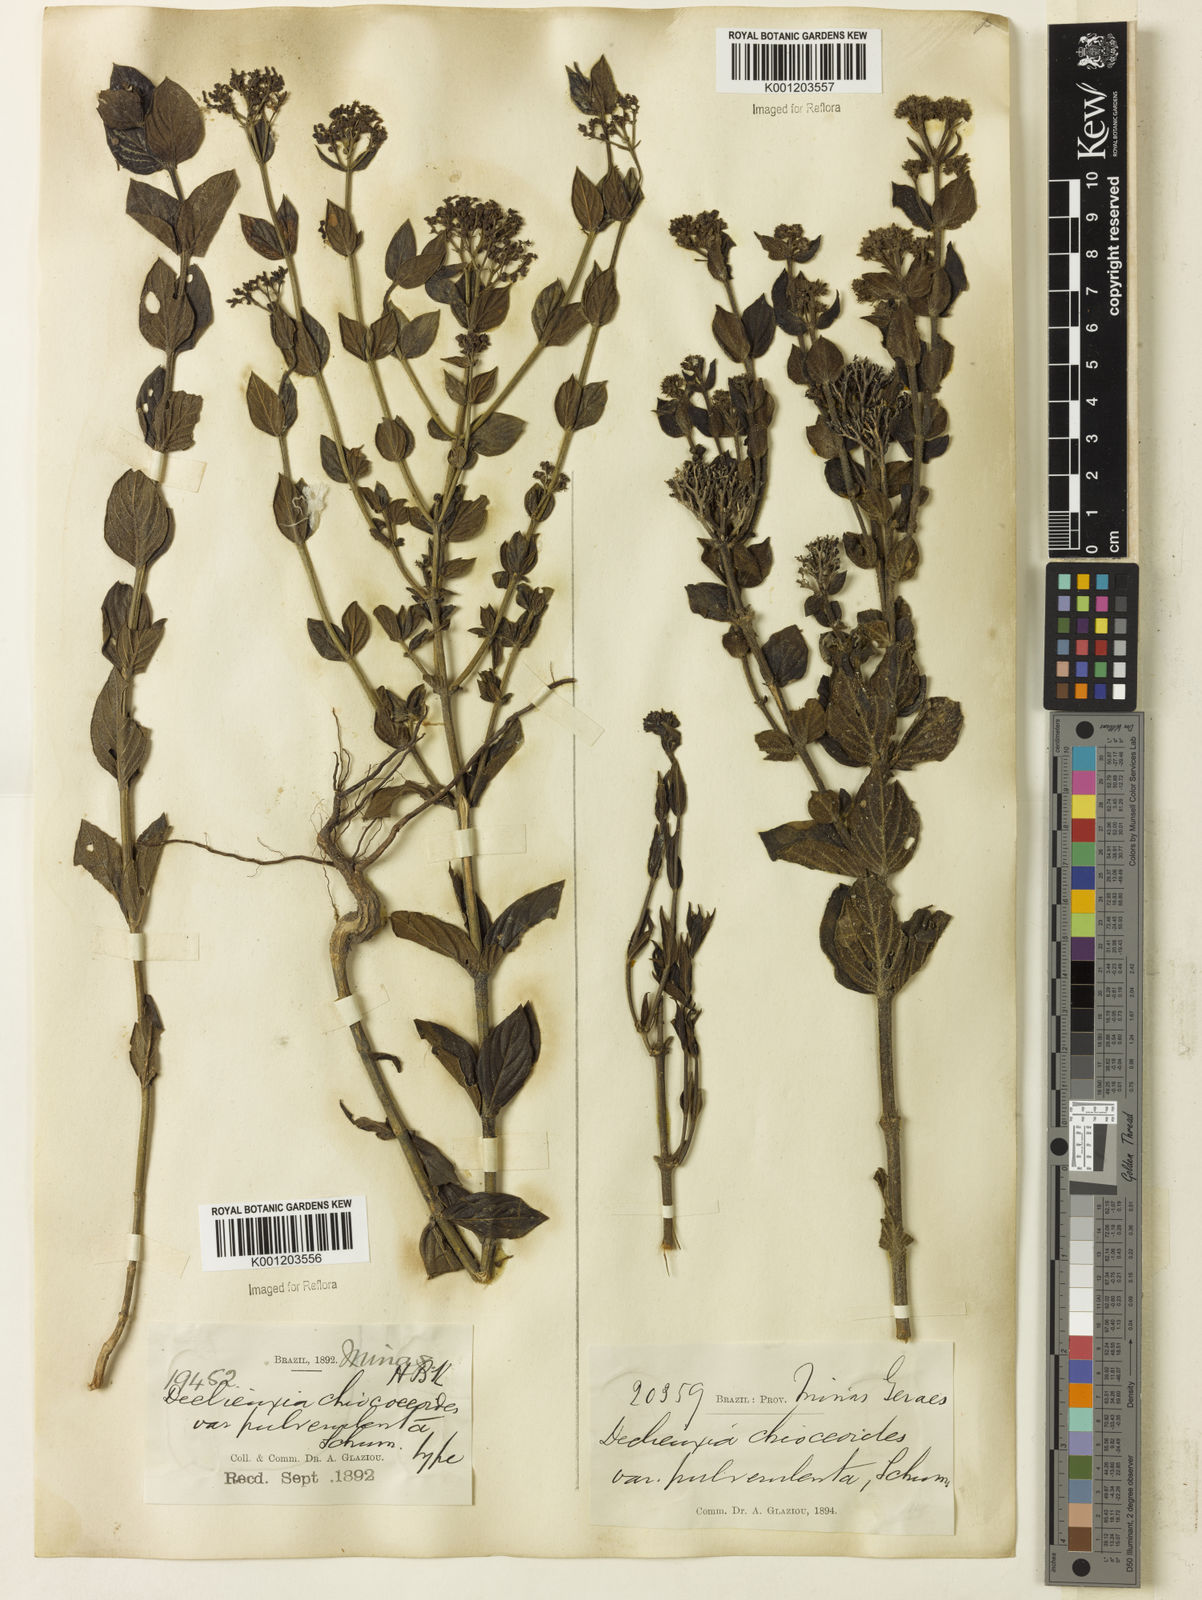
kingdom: Plantae
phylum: Tracheophyta
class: Magnoliopsida
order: Gentianales
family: Rubiaceae
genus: Declieuxia
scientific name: Declieuxia fruticosa
